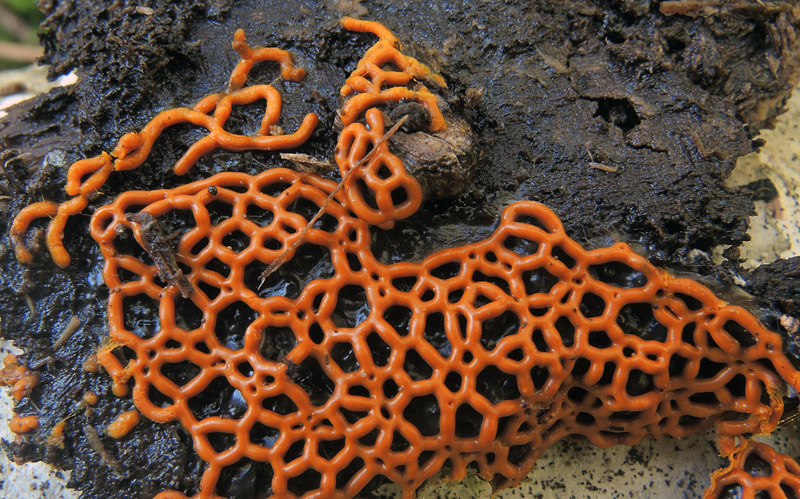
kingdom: Protozoa
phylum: Mycetozoa
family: Trichiidae
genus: Hemitrichia
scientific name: Hemitrichia serpula
